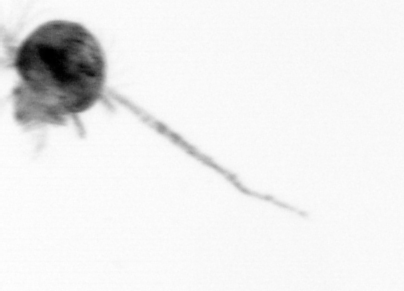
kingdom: Animalia
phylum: Arthropoda
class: Copepoda
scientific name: Copepoda
